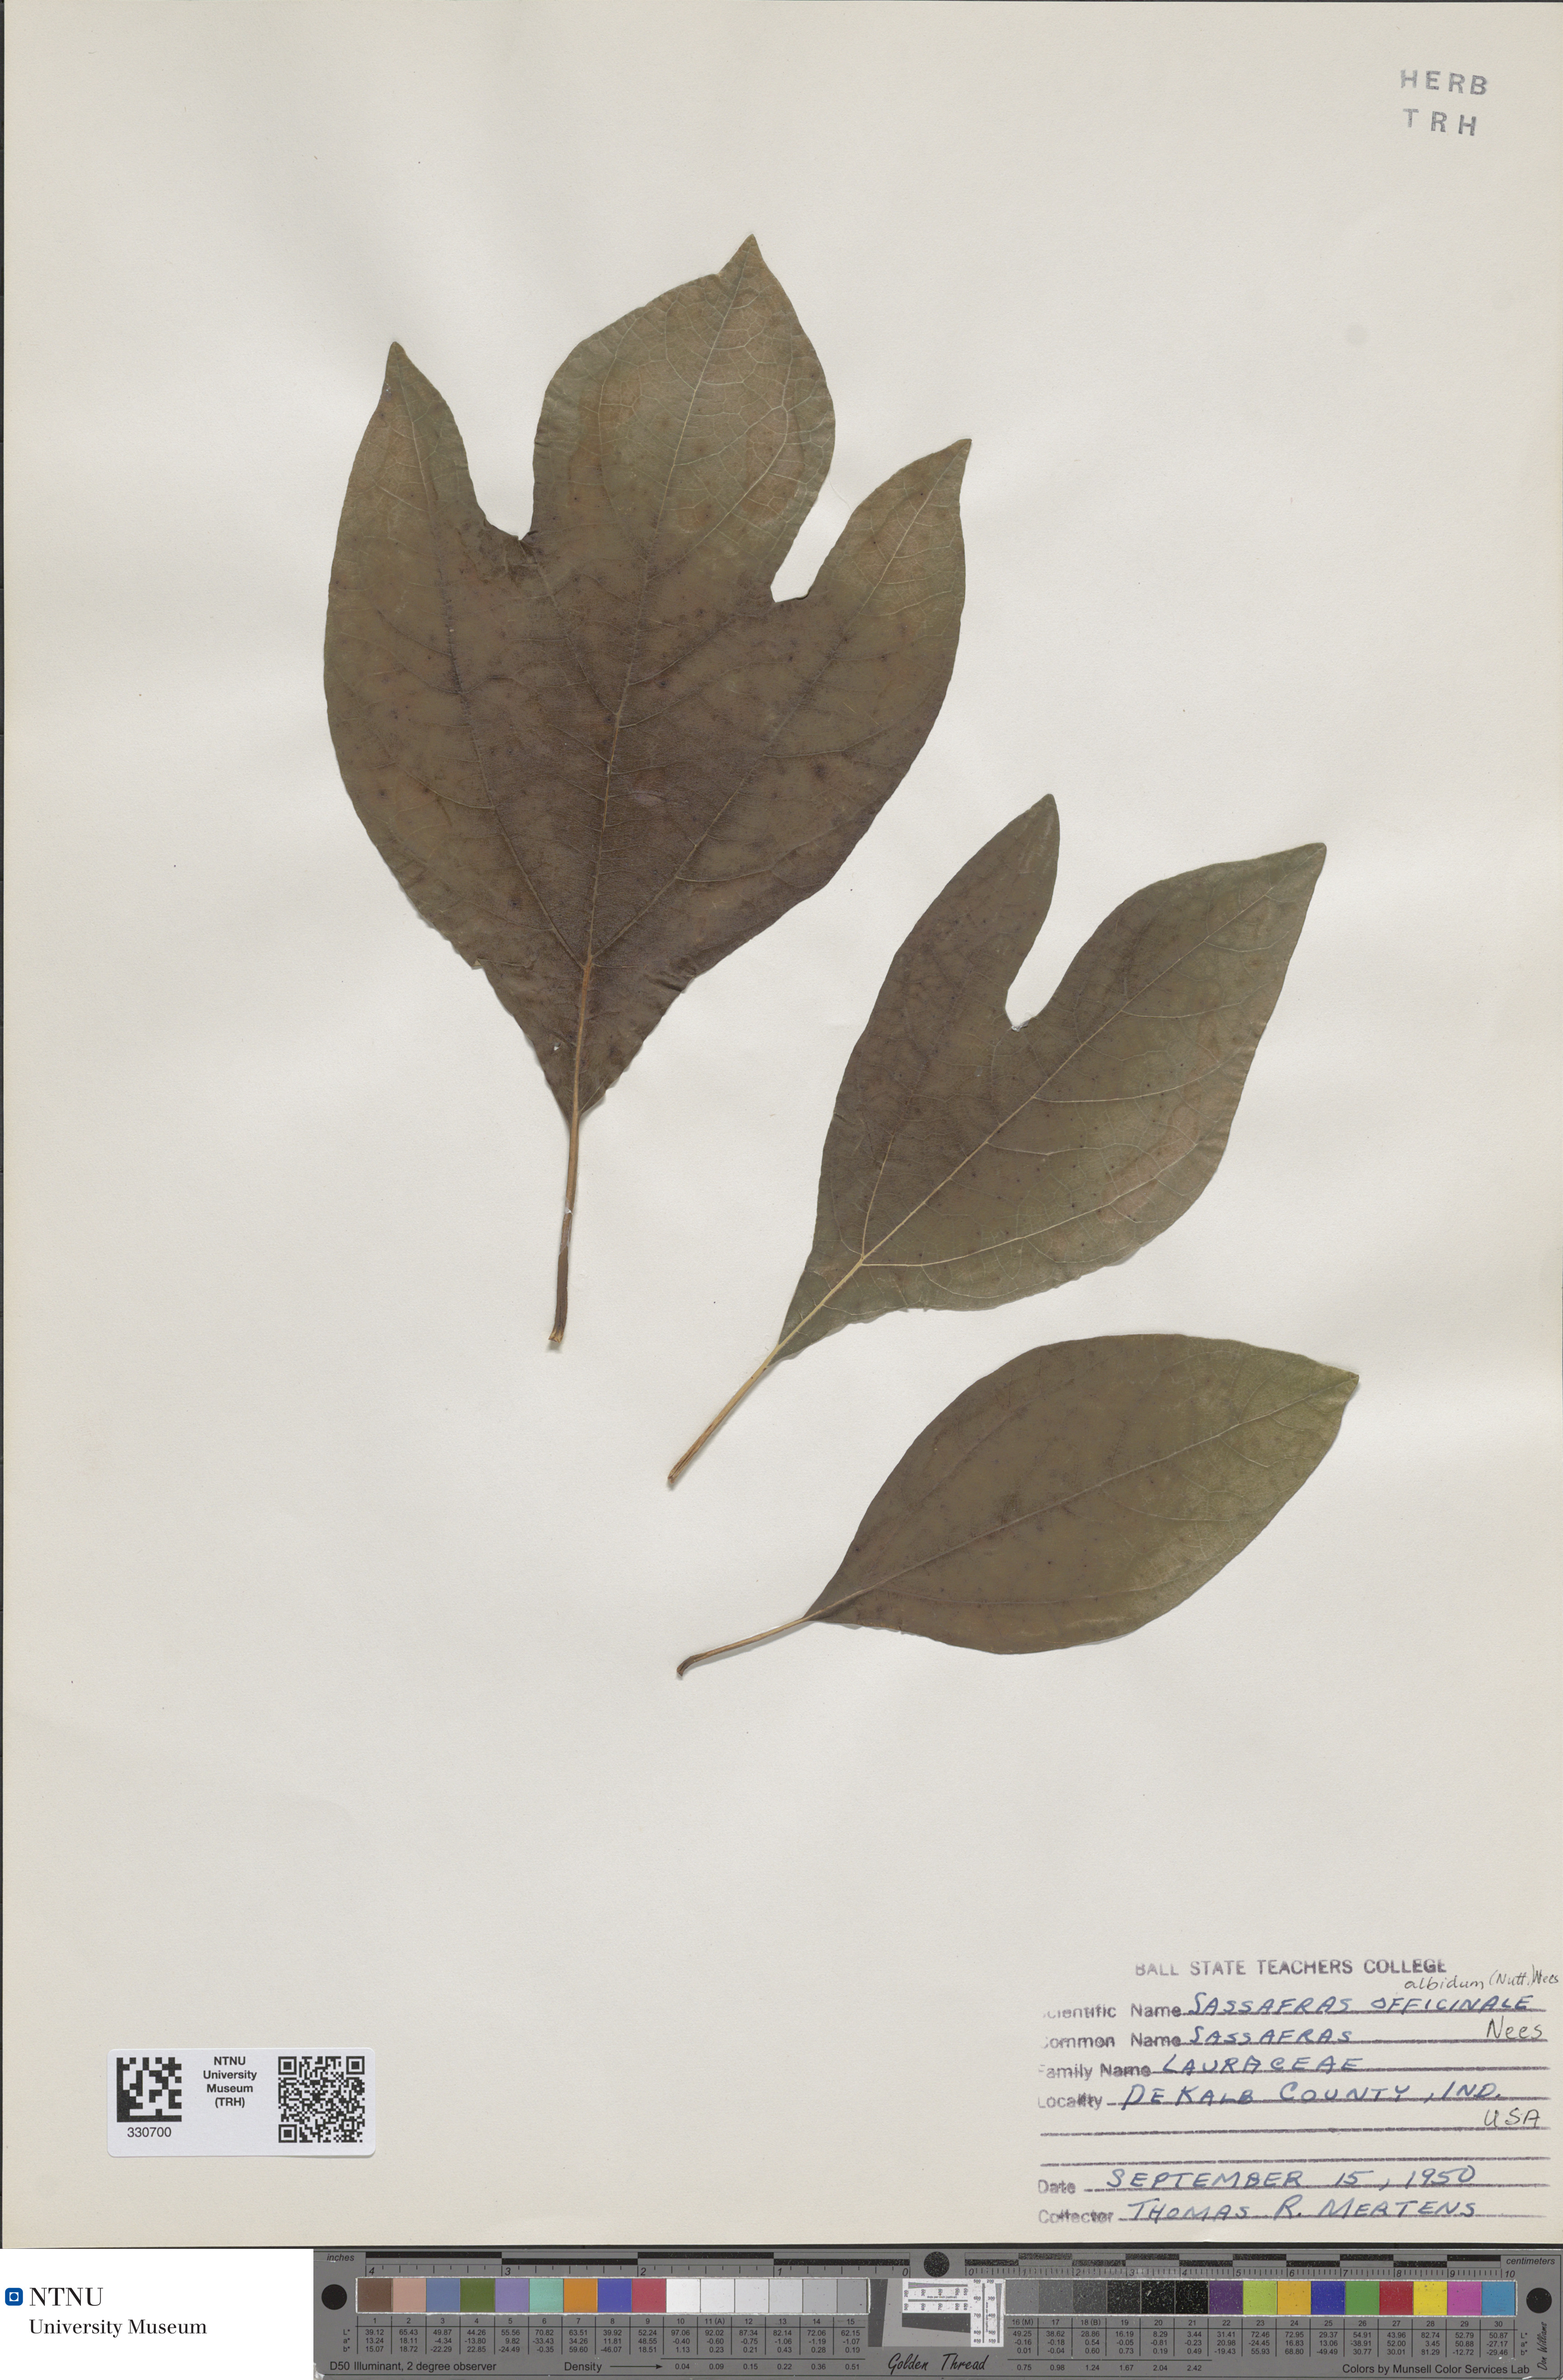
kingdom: Plantae
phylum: Tracheophyta
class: Magnoliopsida
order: Laurales
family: Lauraceae
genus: Sassafras
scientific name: Sassafras albidum
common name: Sassafras
